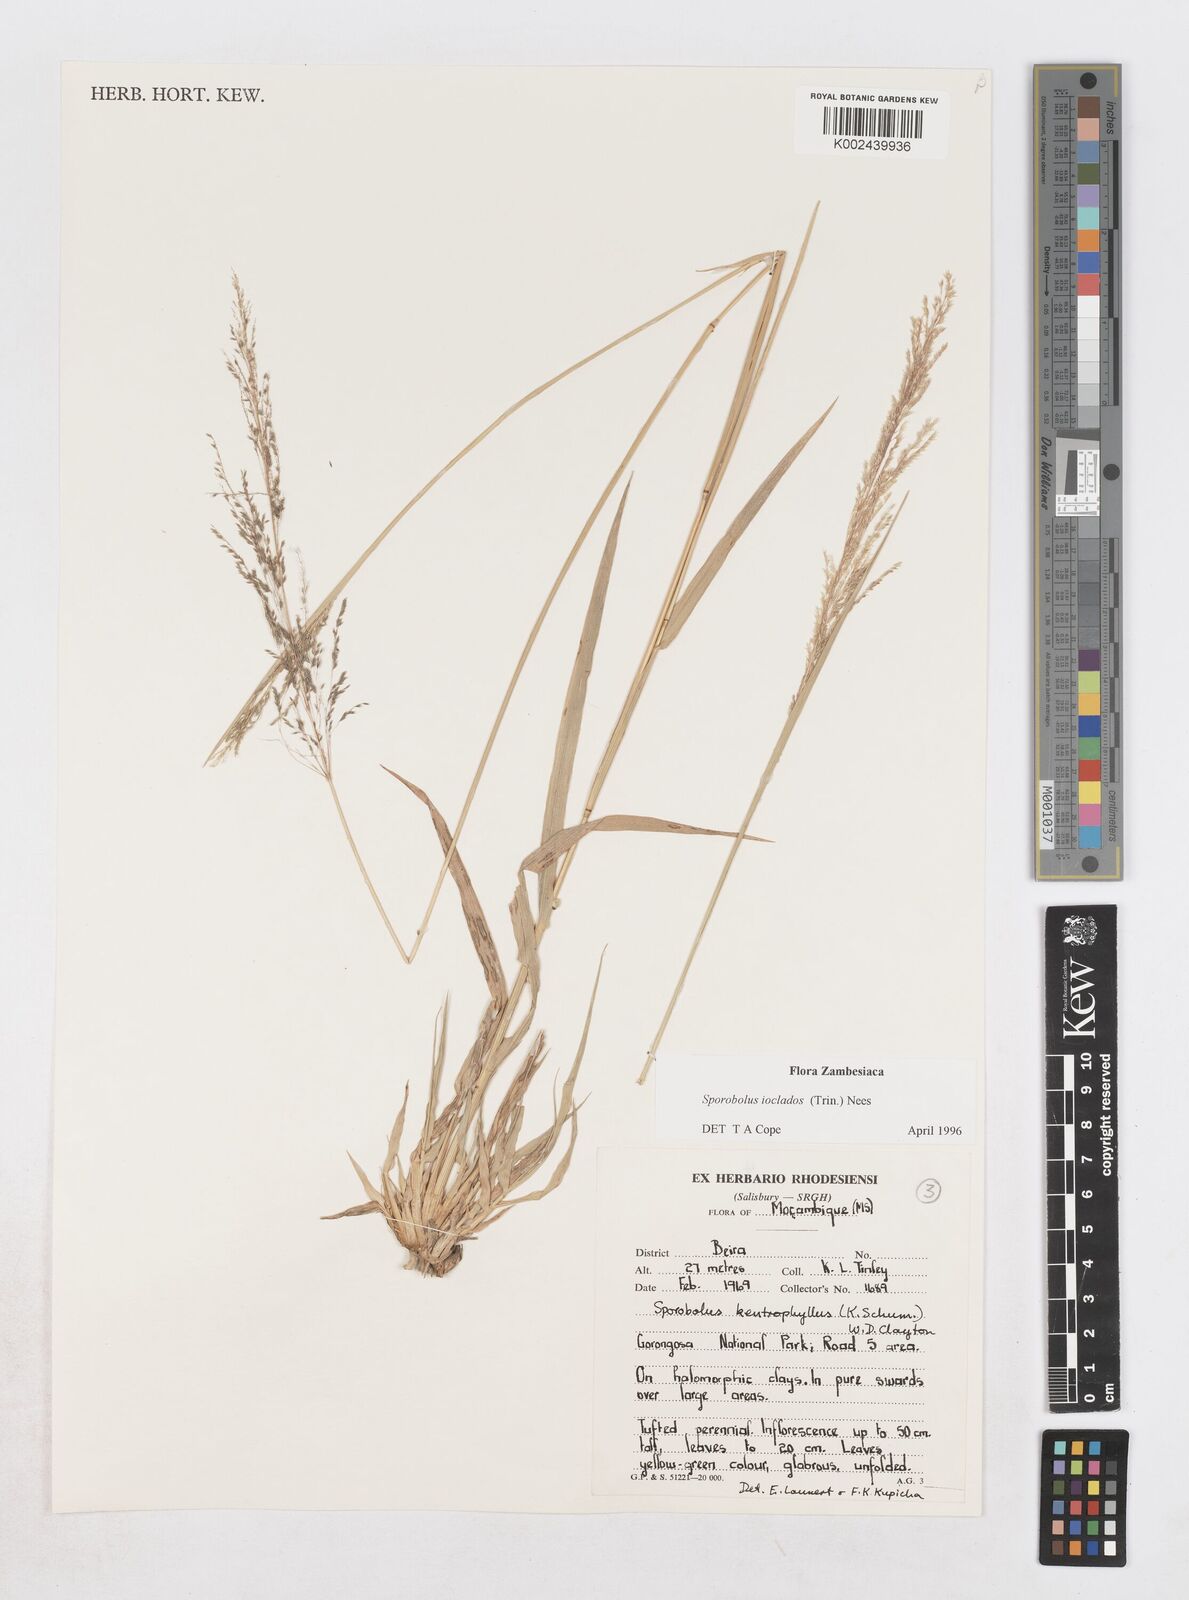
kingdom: Plantae
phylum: Tracheophyta
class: Liliopsida
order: Poales
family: Poaceae
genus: Sporobolus
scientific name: Sporobolus ioclados
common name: Pan dropseed
